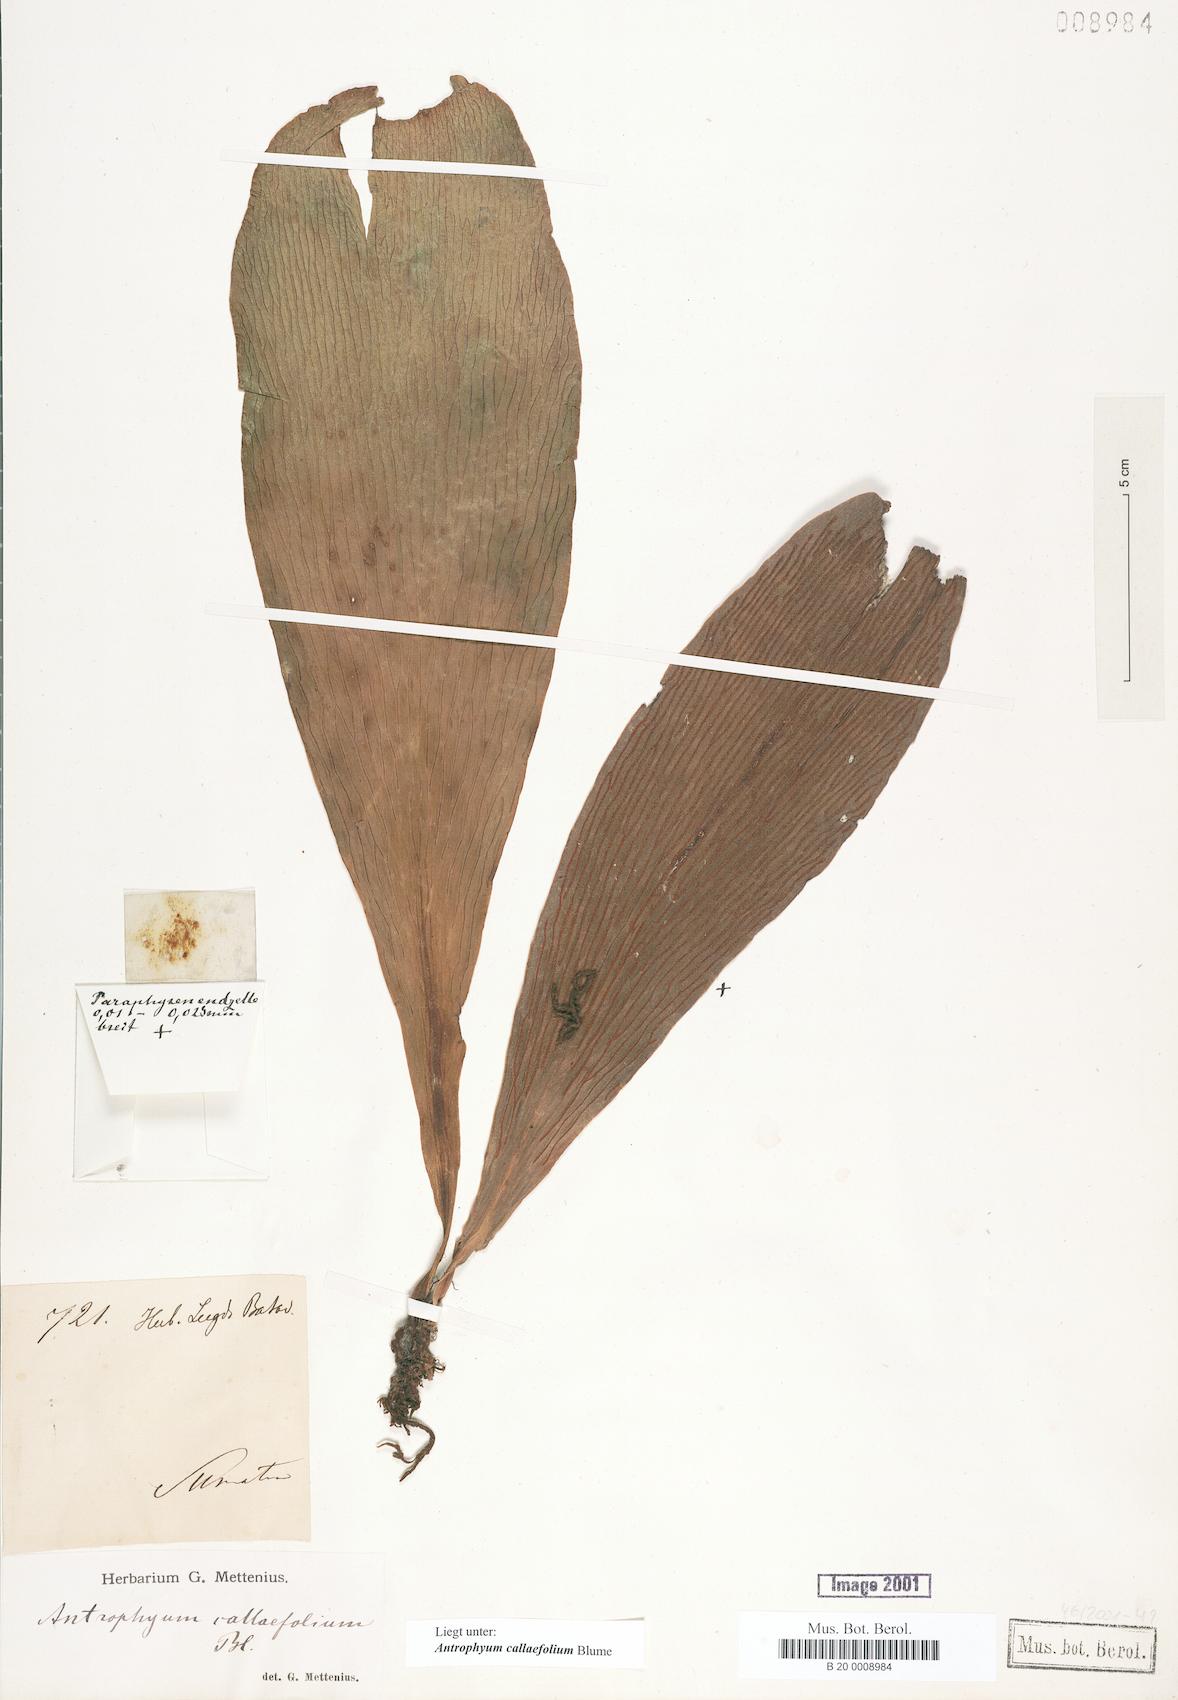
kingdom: Plantae
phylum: Tracheophyta
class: Polypodiopsida
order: Polypodiales
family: Pteridaceae
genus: Antrophyum
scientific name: Antrophyum callifolium
